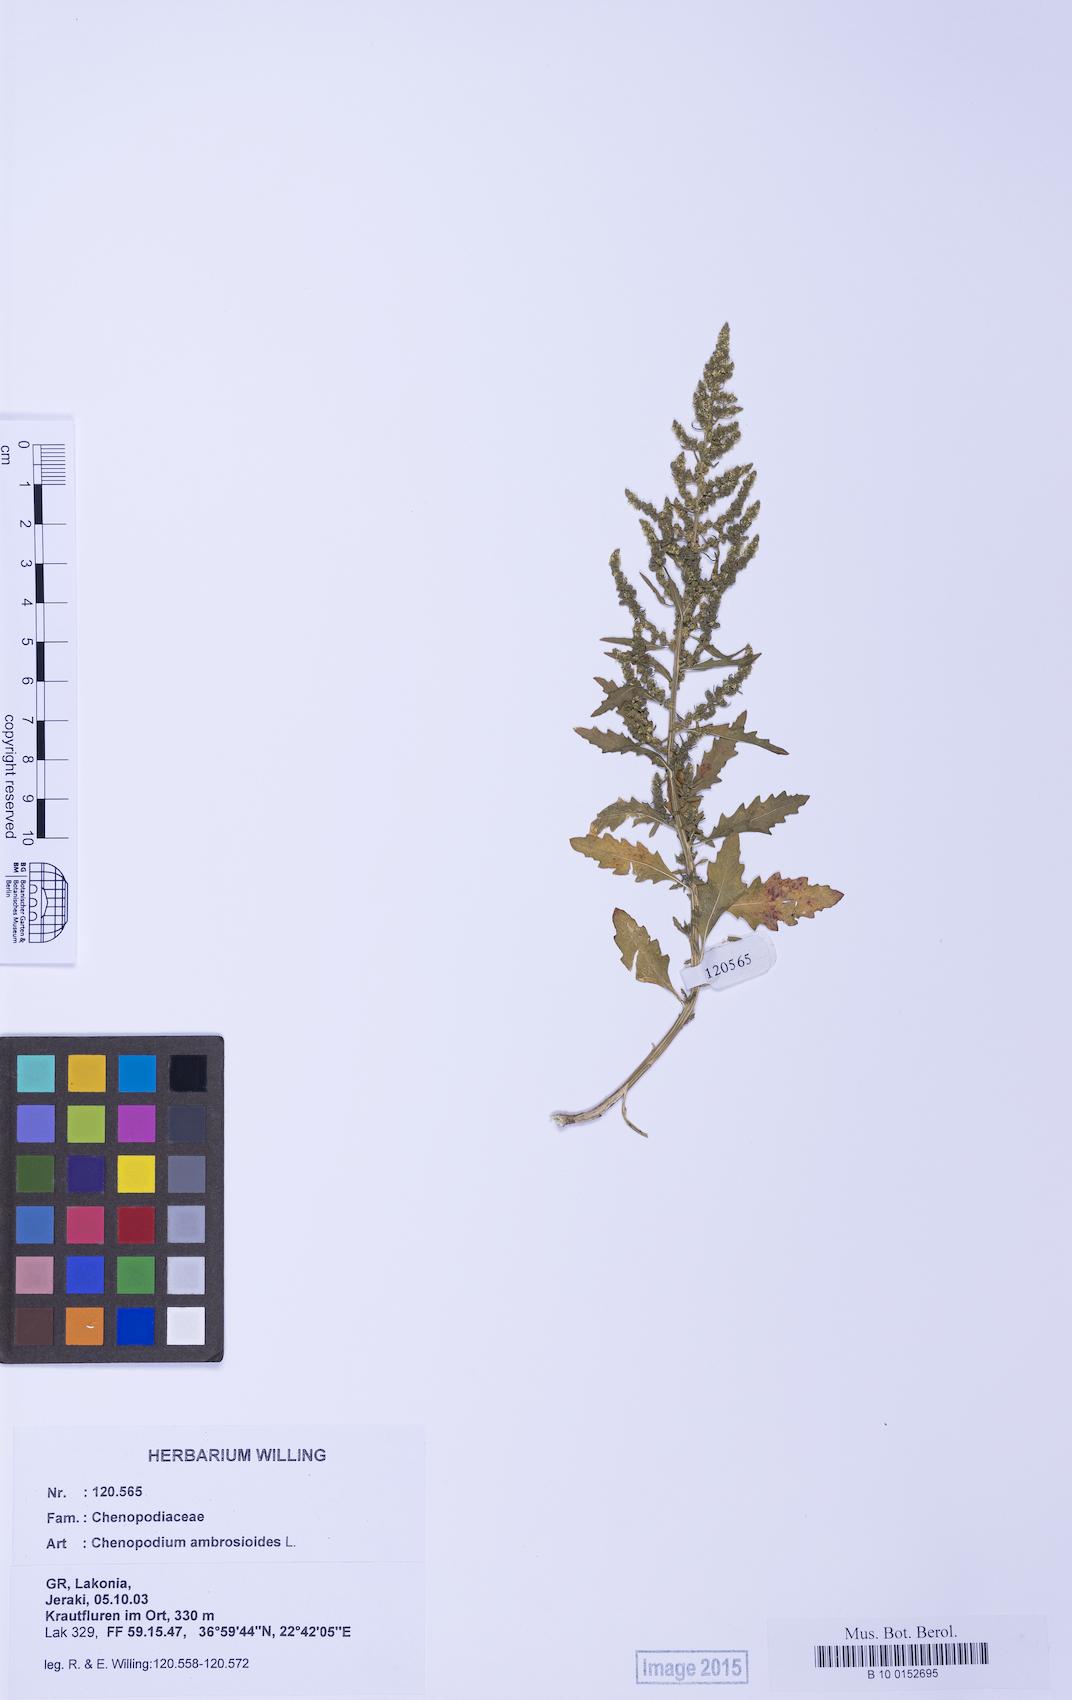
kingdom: Plantae
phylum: Tracheophyta
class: Magnoliopsida
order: Caryophyllales
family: Amaranthaceae
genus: Dysphania
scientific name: Dysphania ambrosioides
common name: Wormseed
